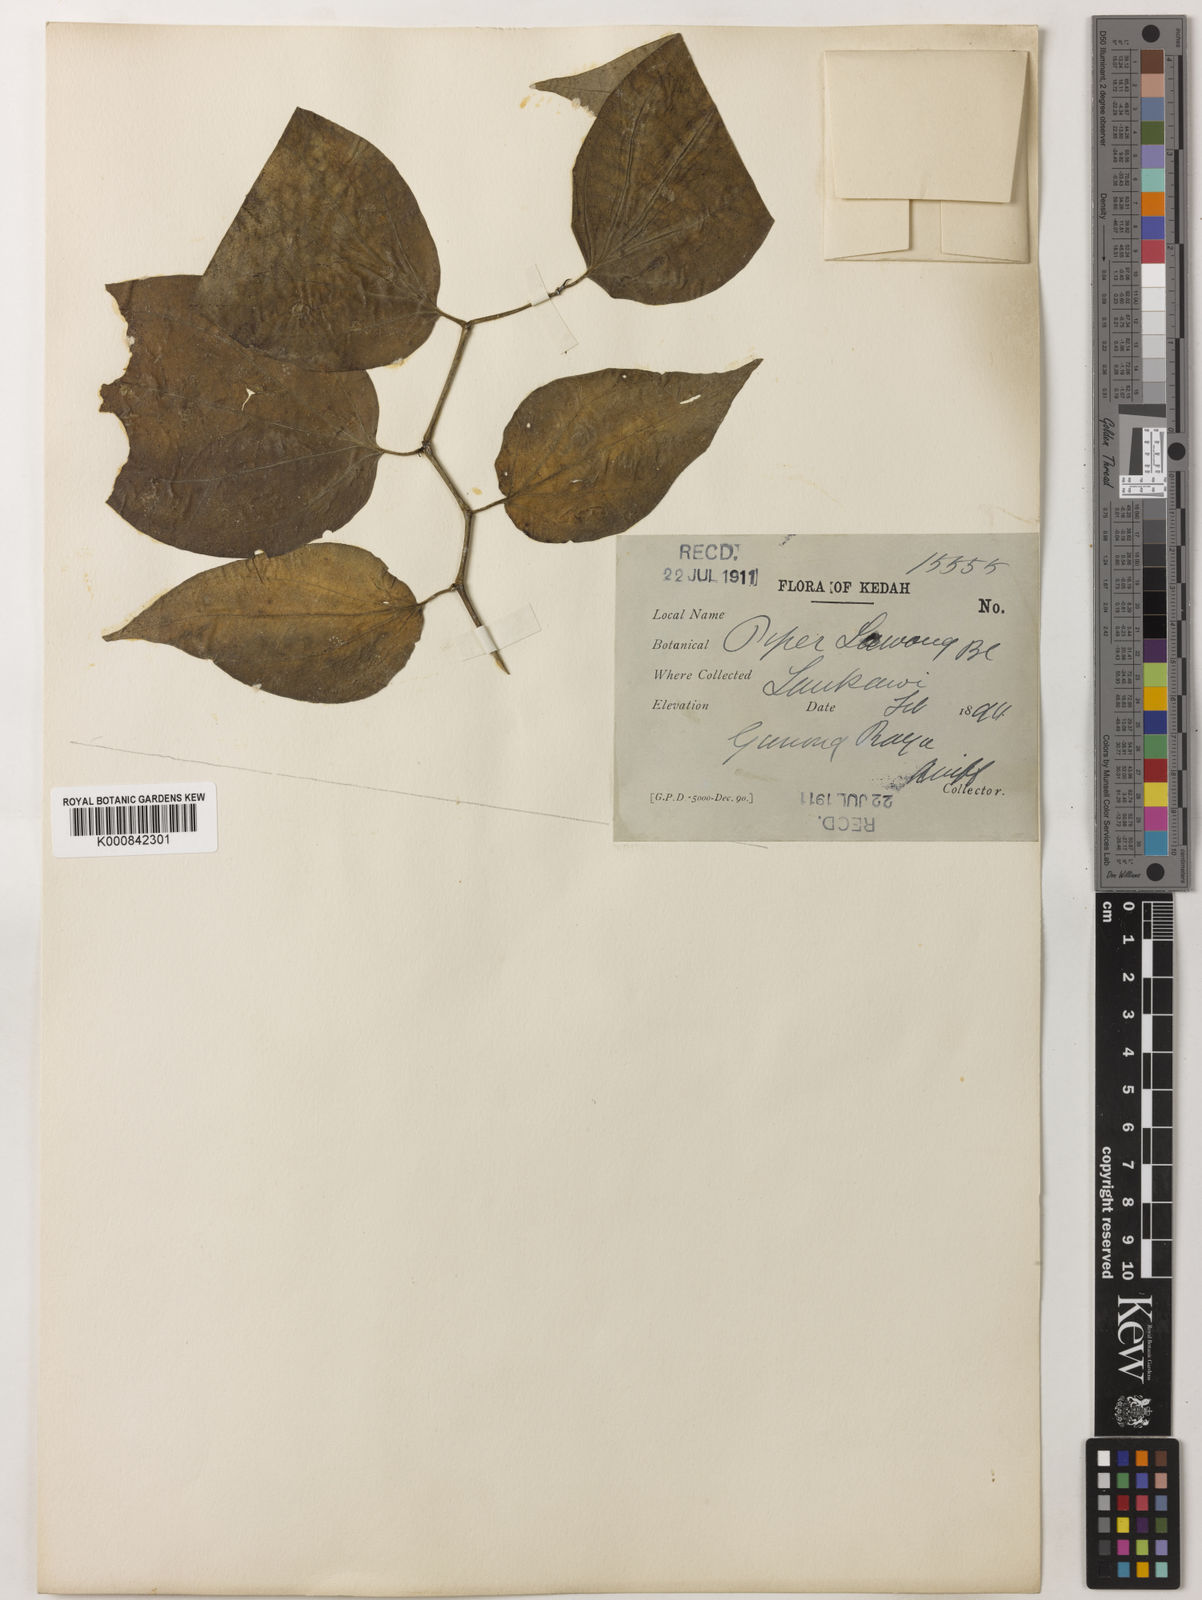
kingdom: Plantae
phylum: Tracheophyta
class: Magnoliopsida
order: Piperales
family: Piperaceae
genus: Piper
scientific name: Piper lanatum
